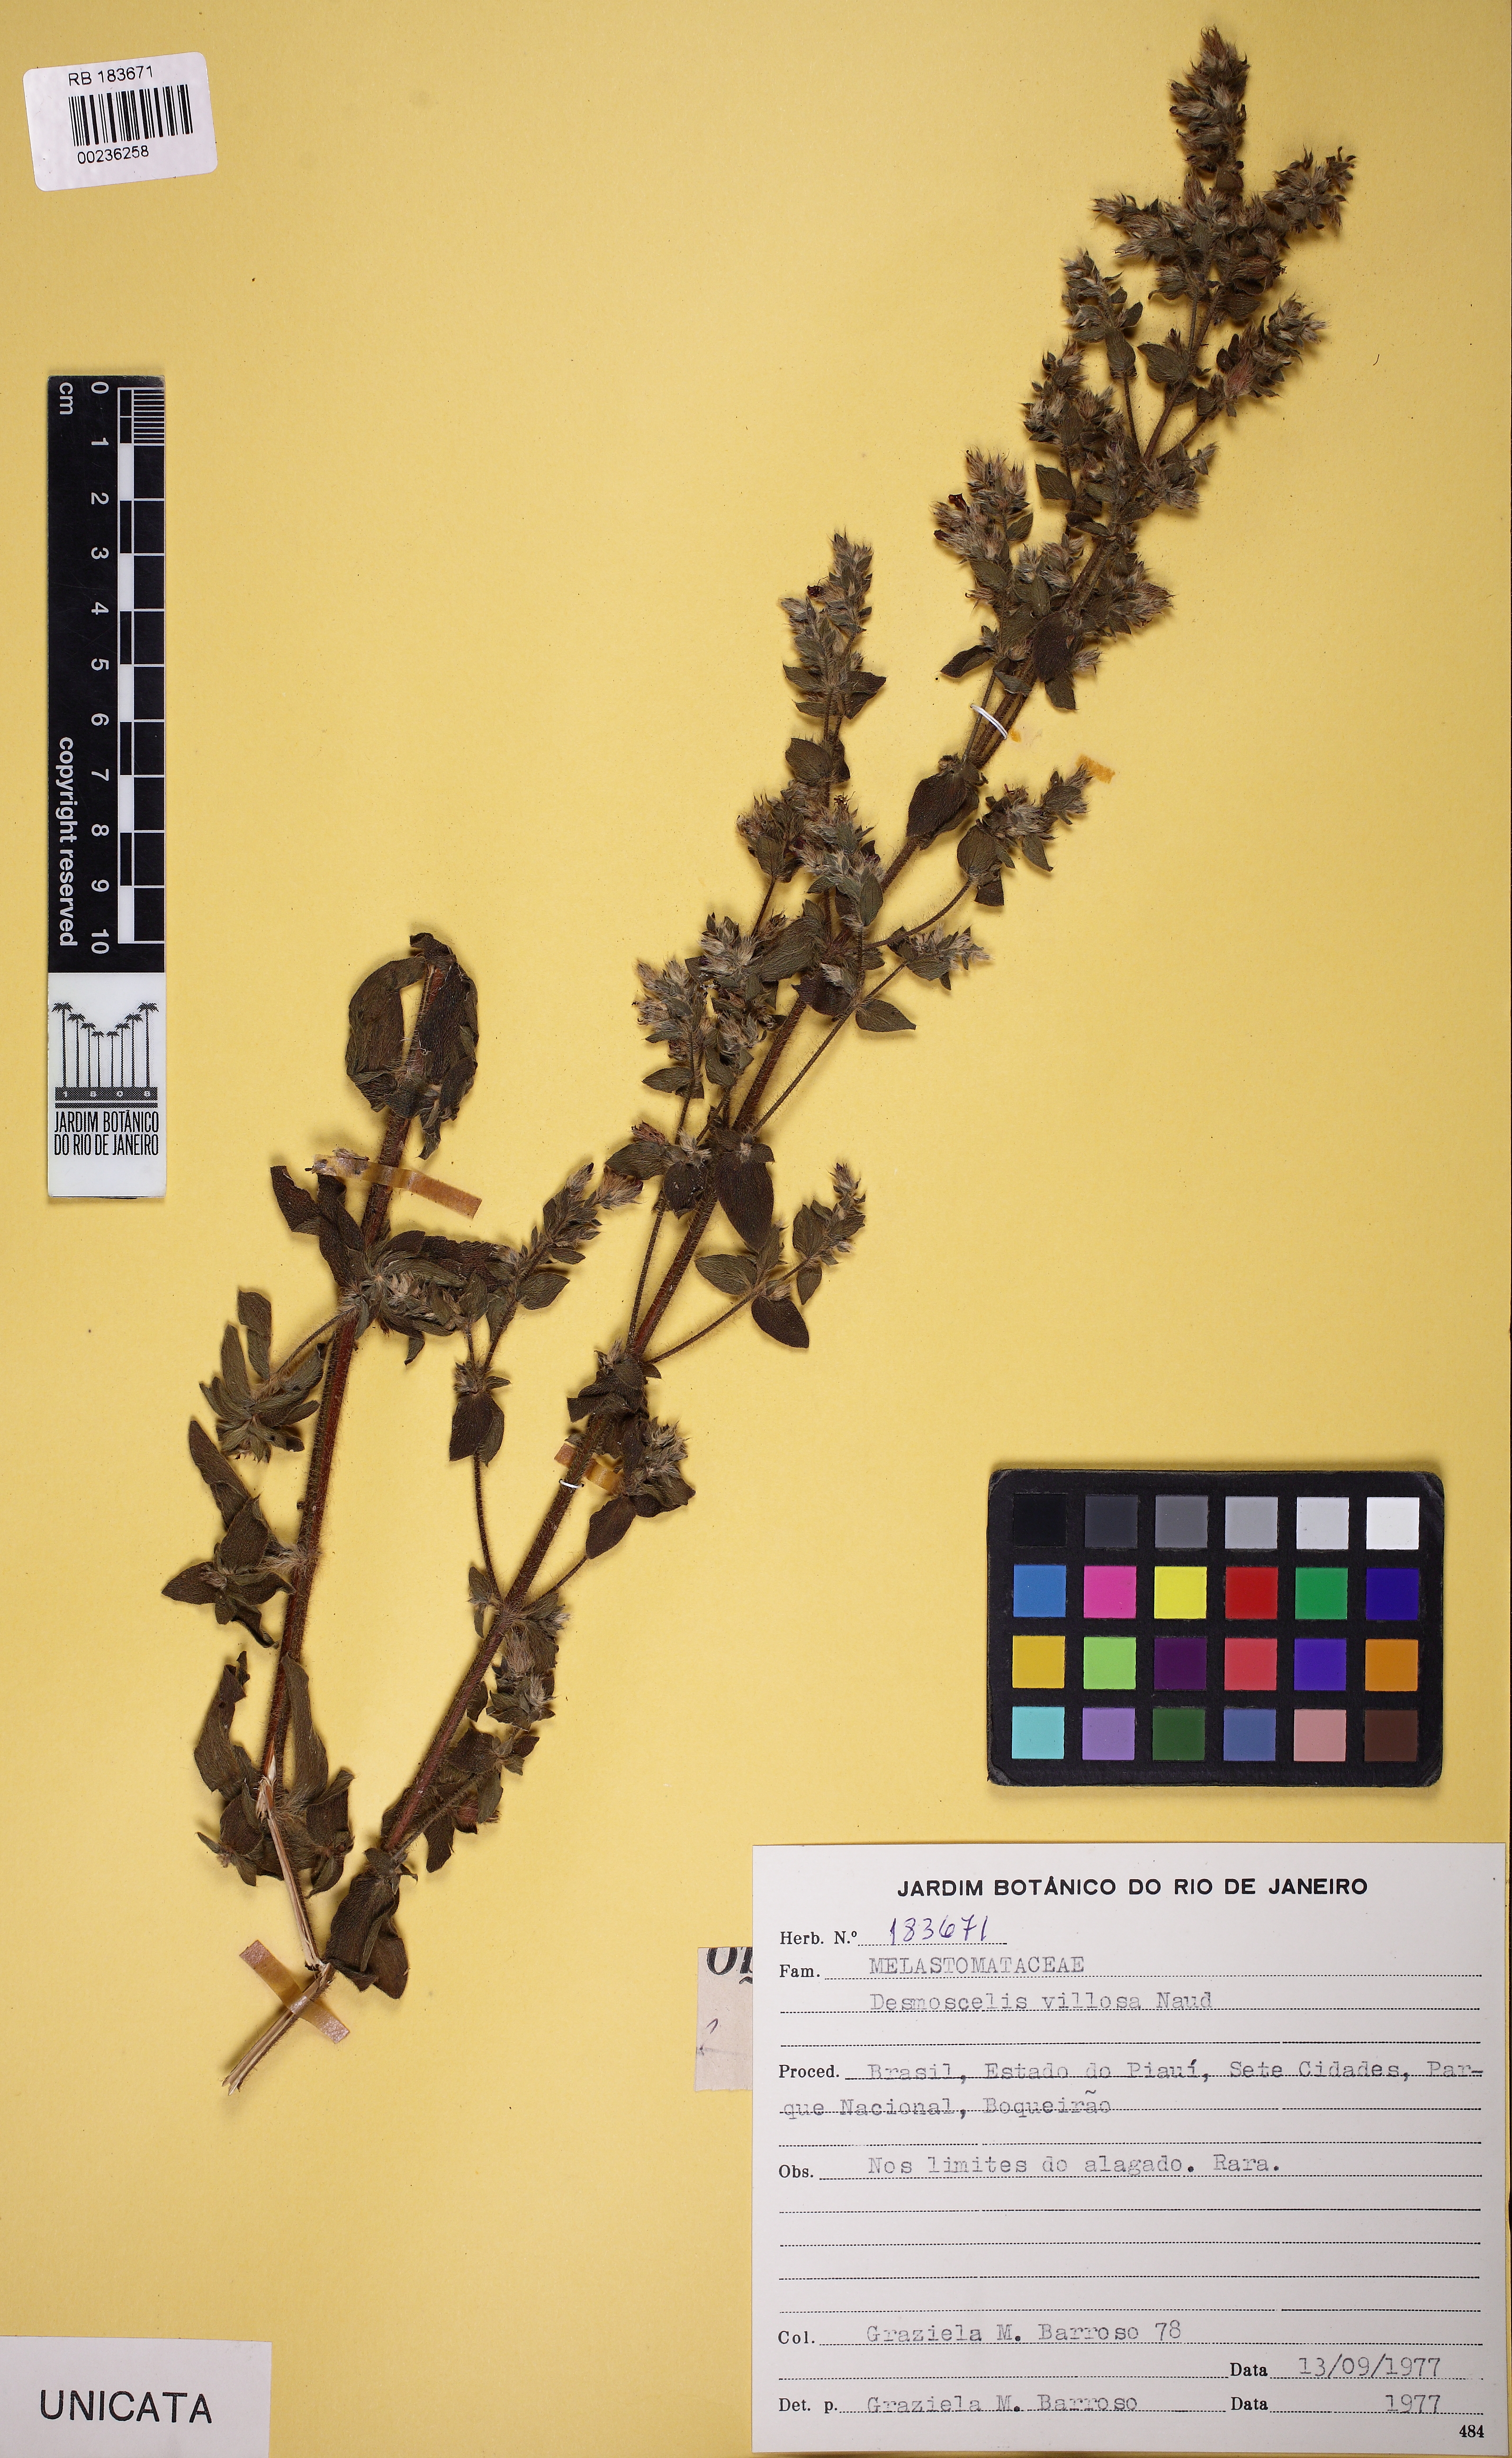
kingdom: Plantae
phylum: Tracheophyta
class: Magnoliopsida
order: Myrtales
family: Melastomataceae
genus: Desmoscelis
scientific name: Desmoscelis villosa
